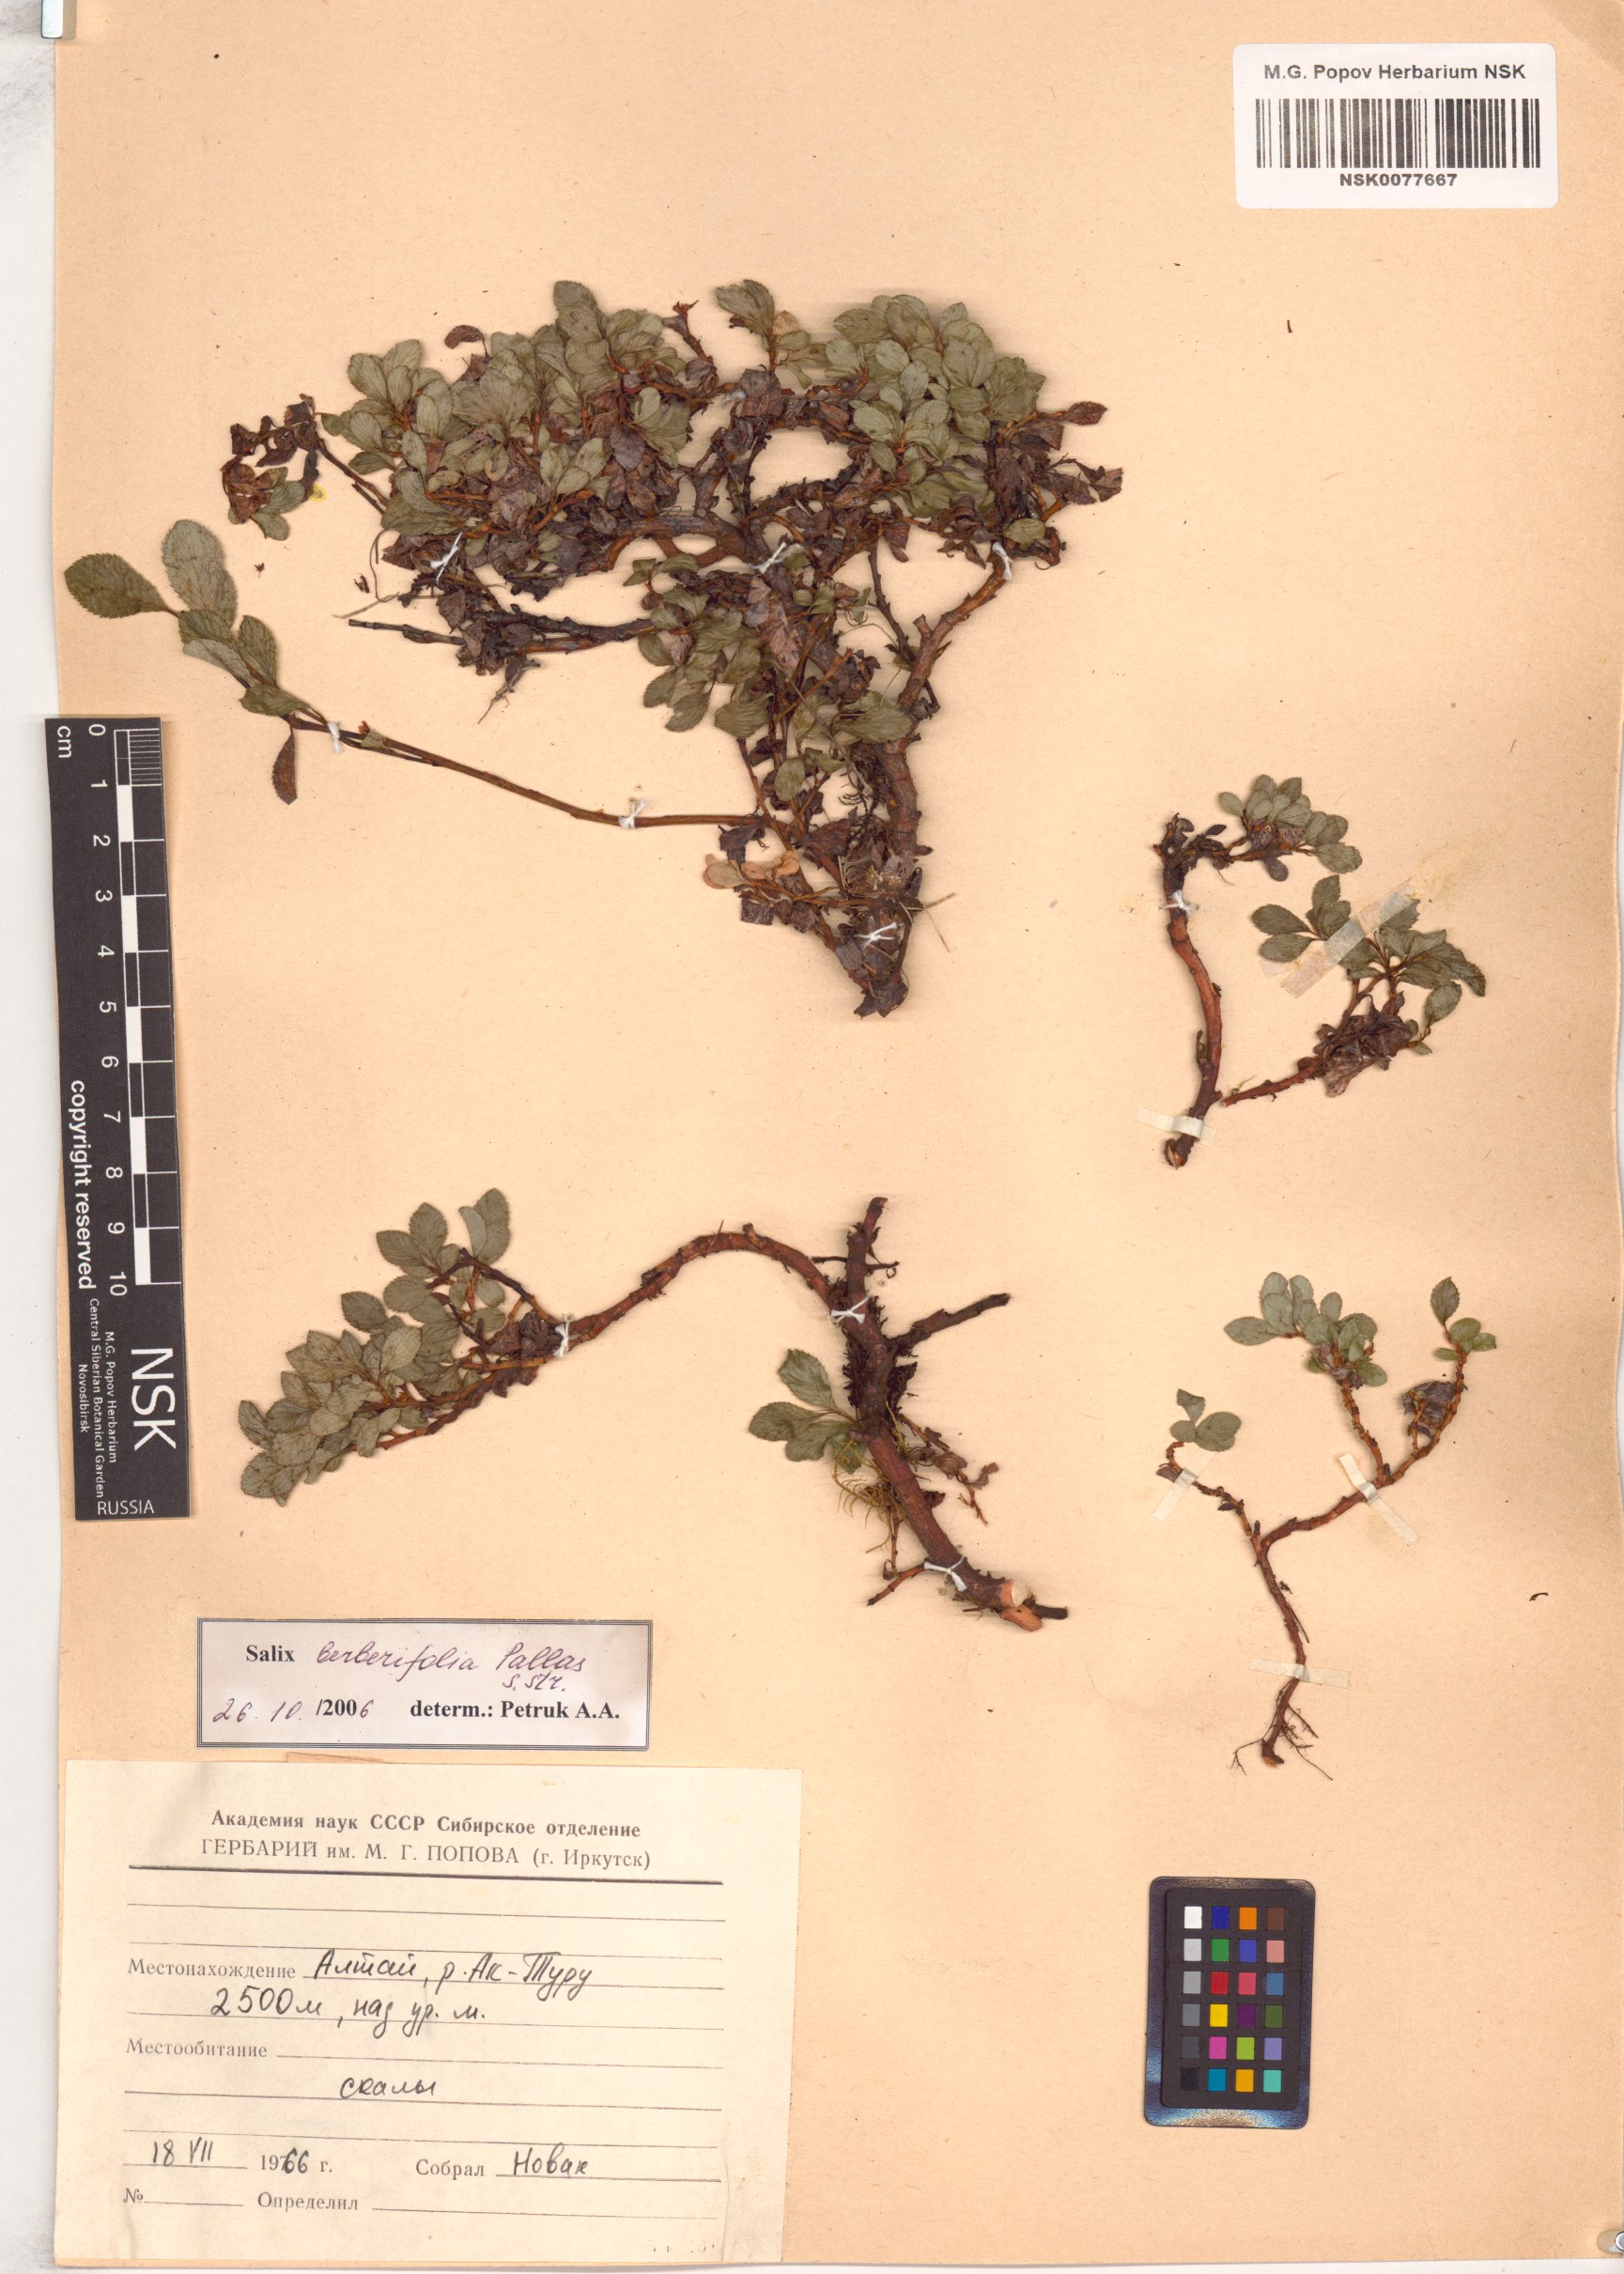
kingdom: Plantae
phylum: Tracheophyta
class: Magnoliopsida
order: Malpighiales
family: Salicaceae
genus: Salix
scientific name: Salix berberifolia
